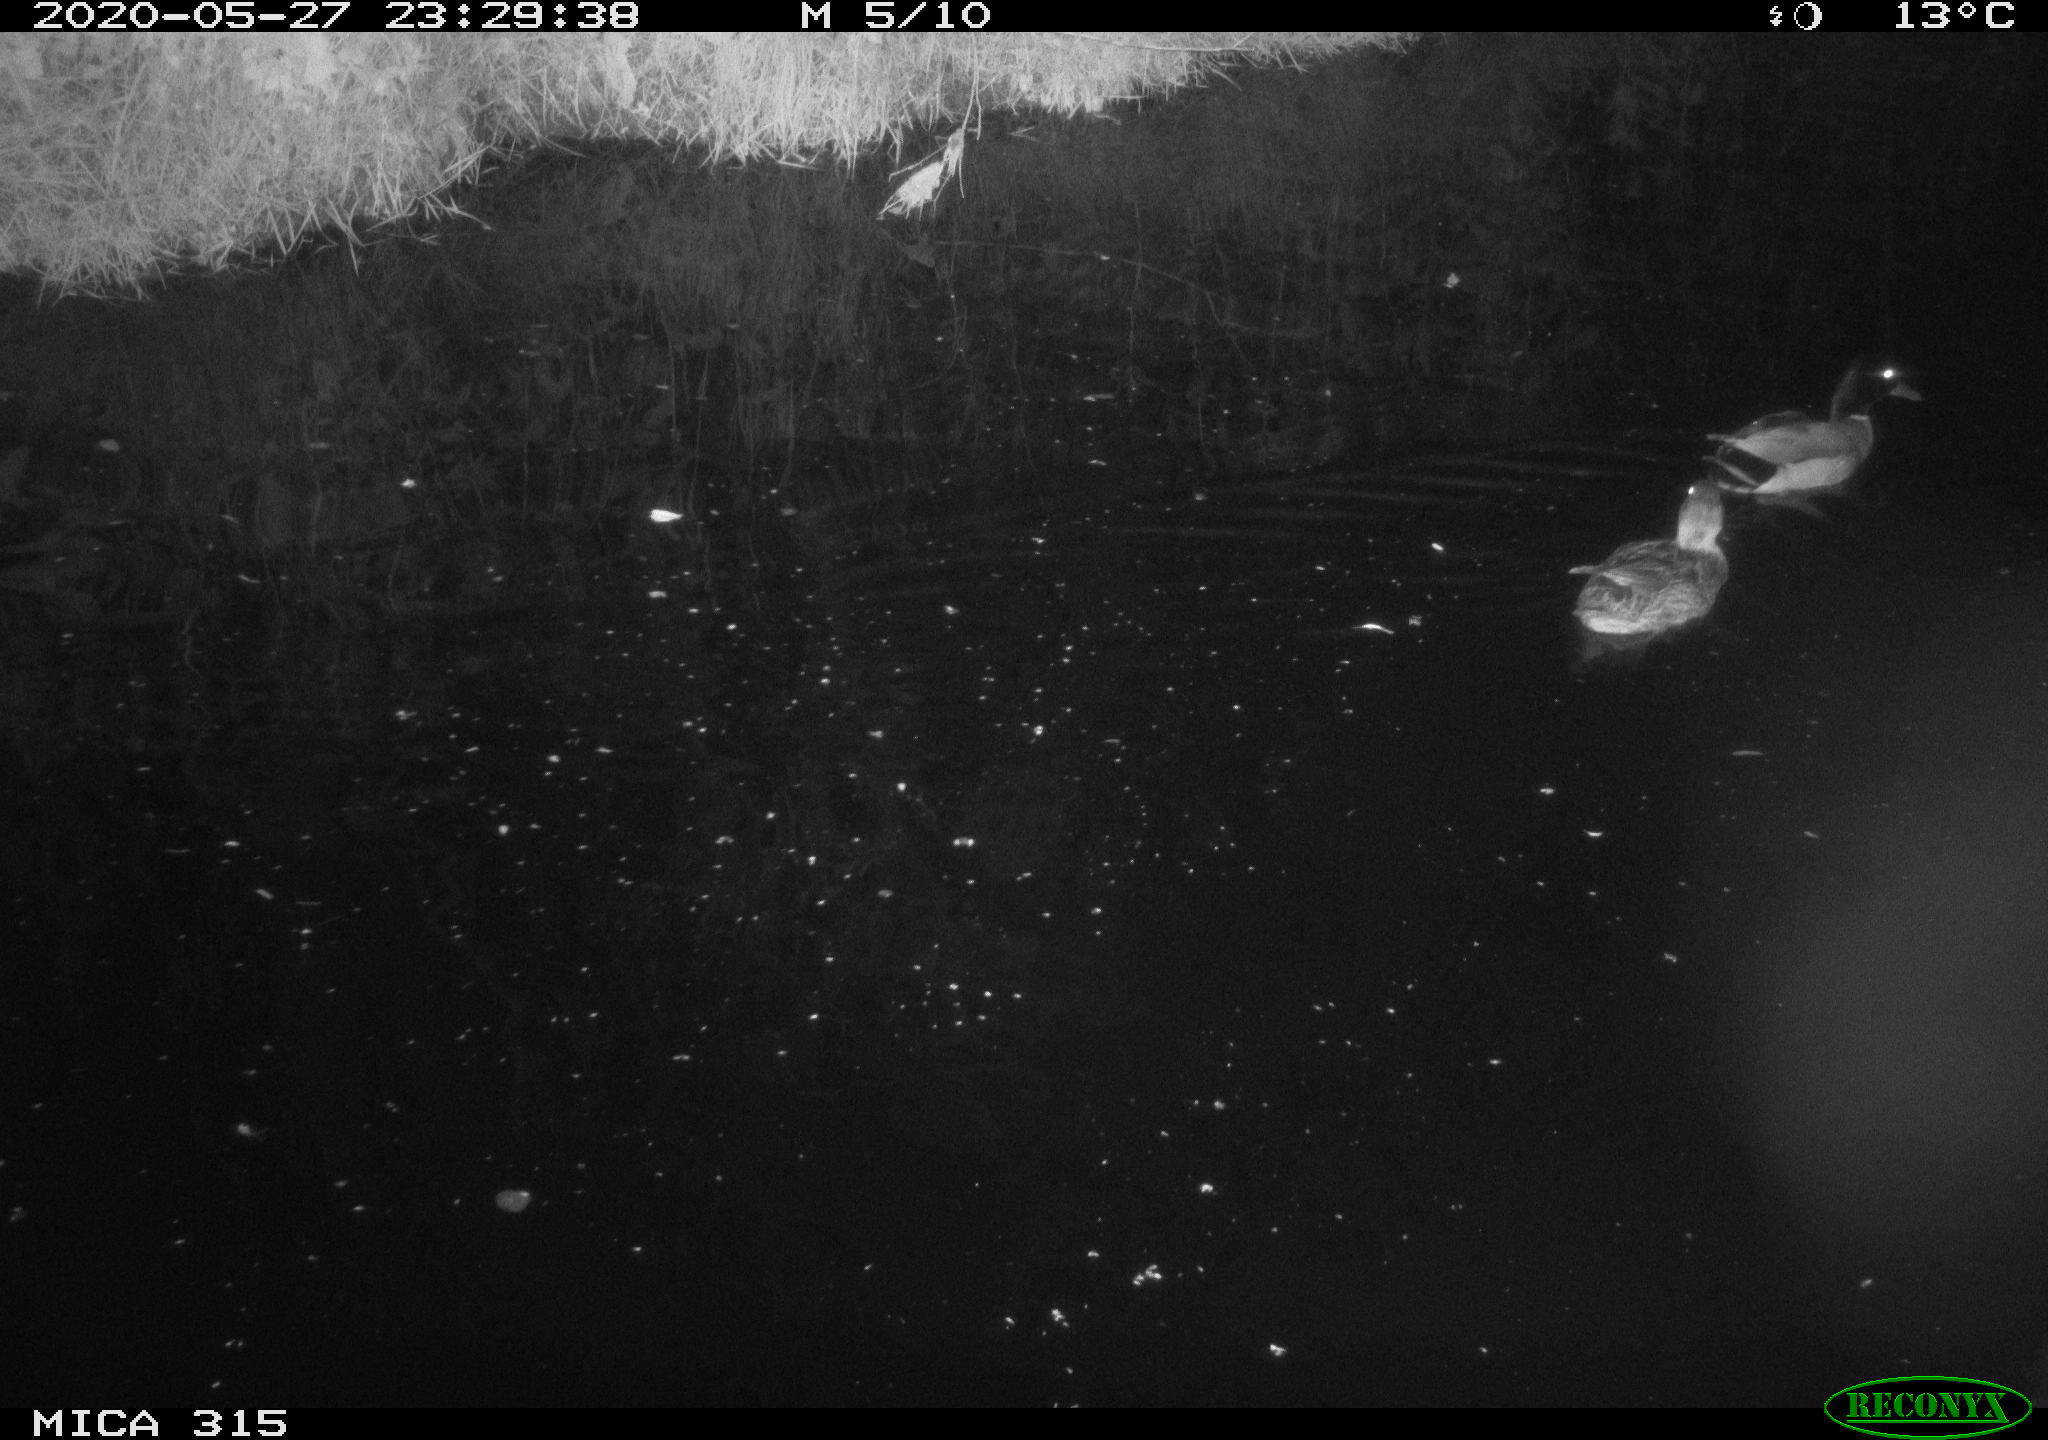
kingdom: Animalia
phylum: Chordata
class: Aves
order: Anseriformes
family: Anatidae
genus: Anas
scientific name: Anas platyrhynchos
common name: Mallard
